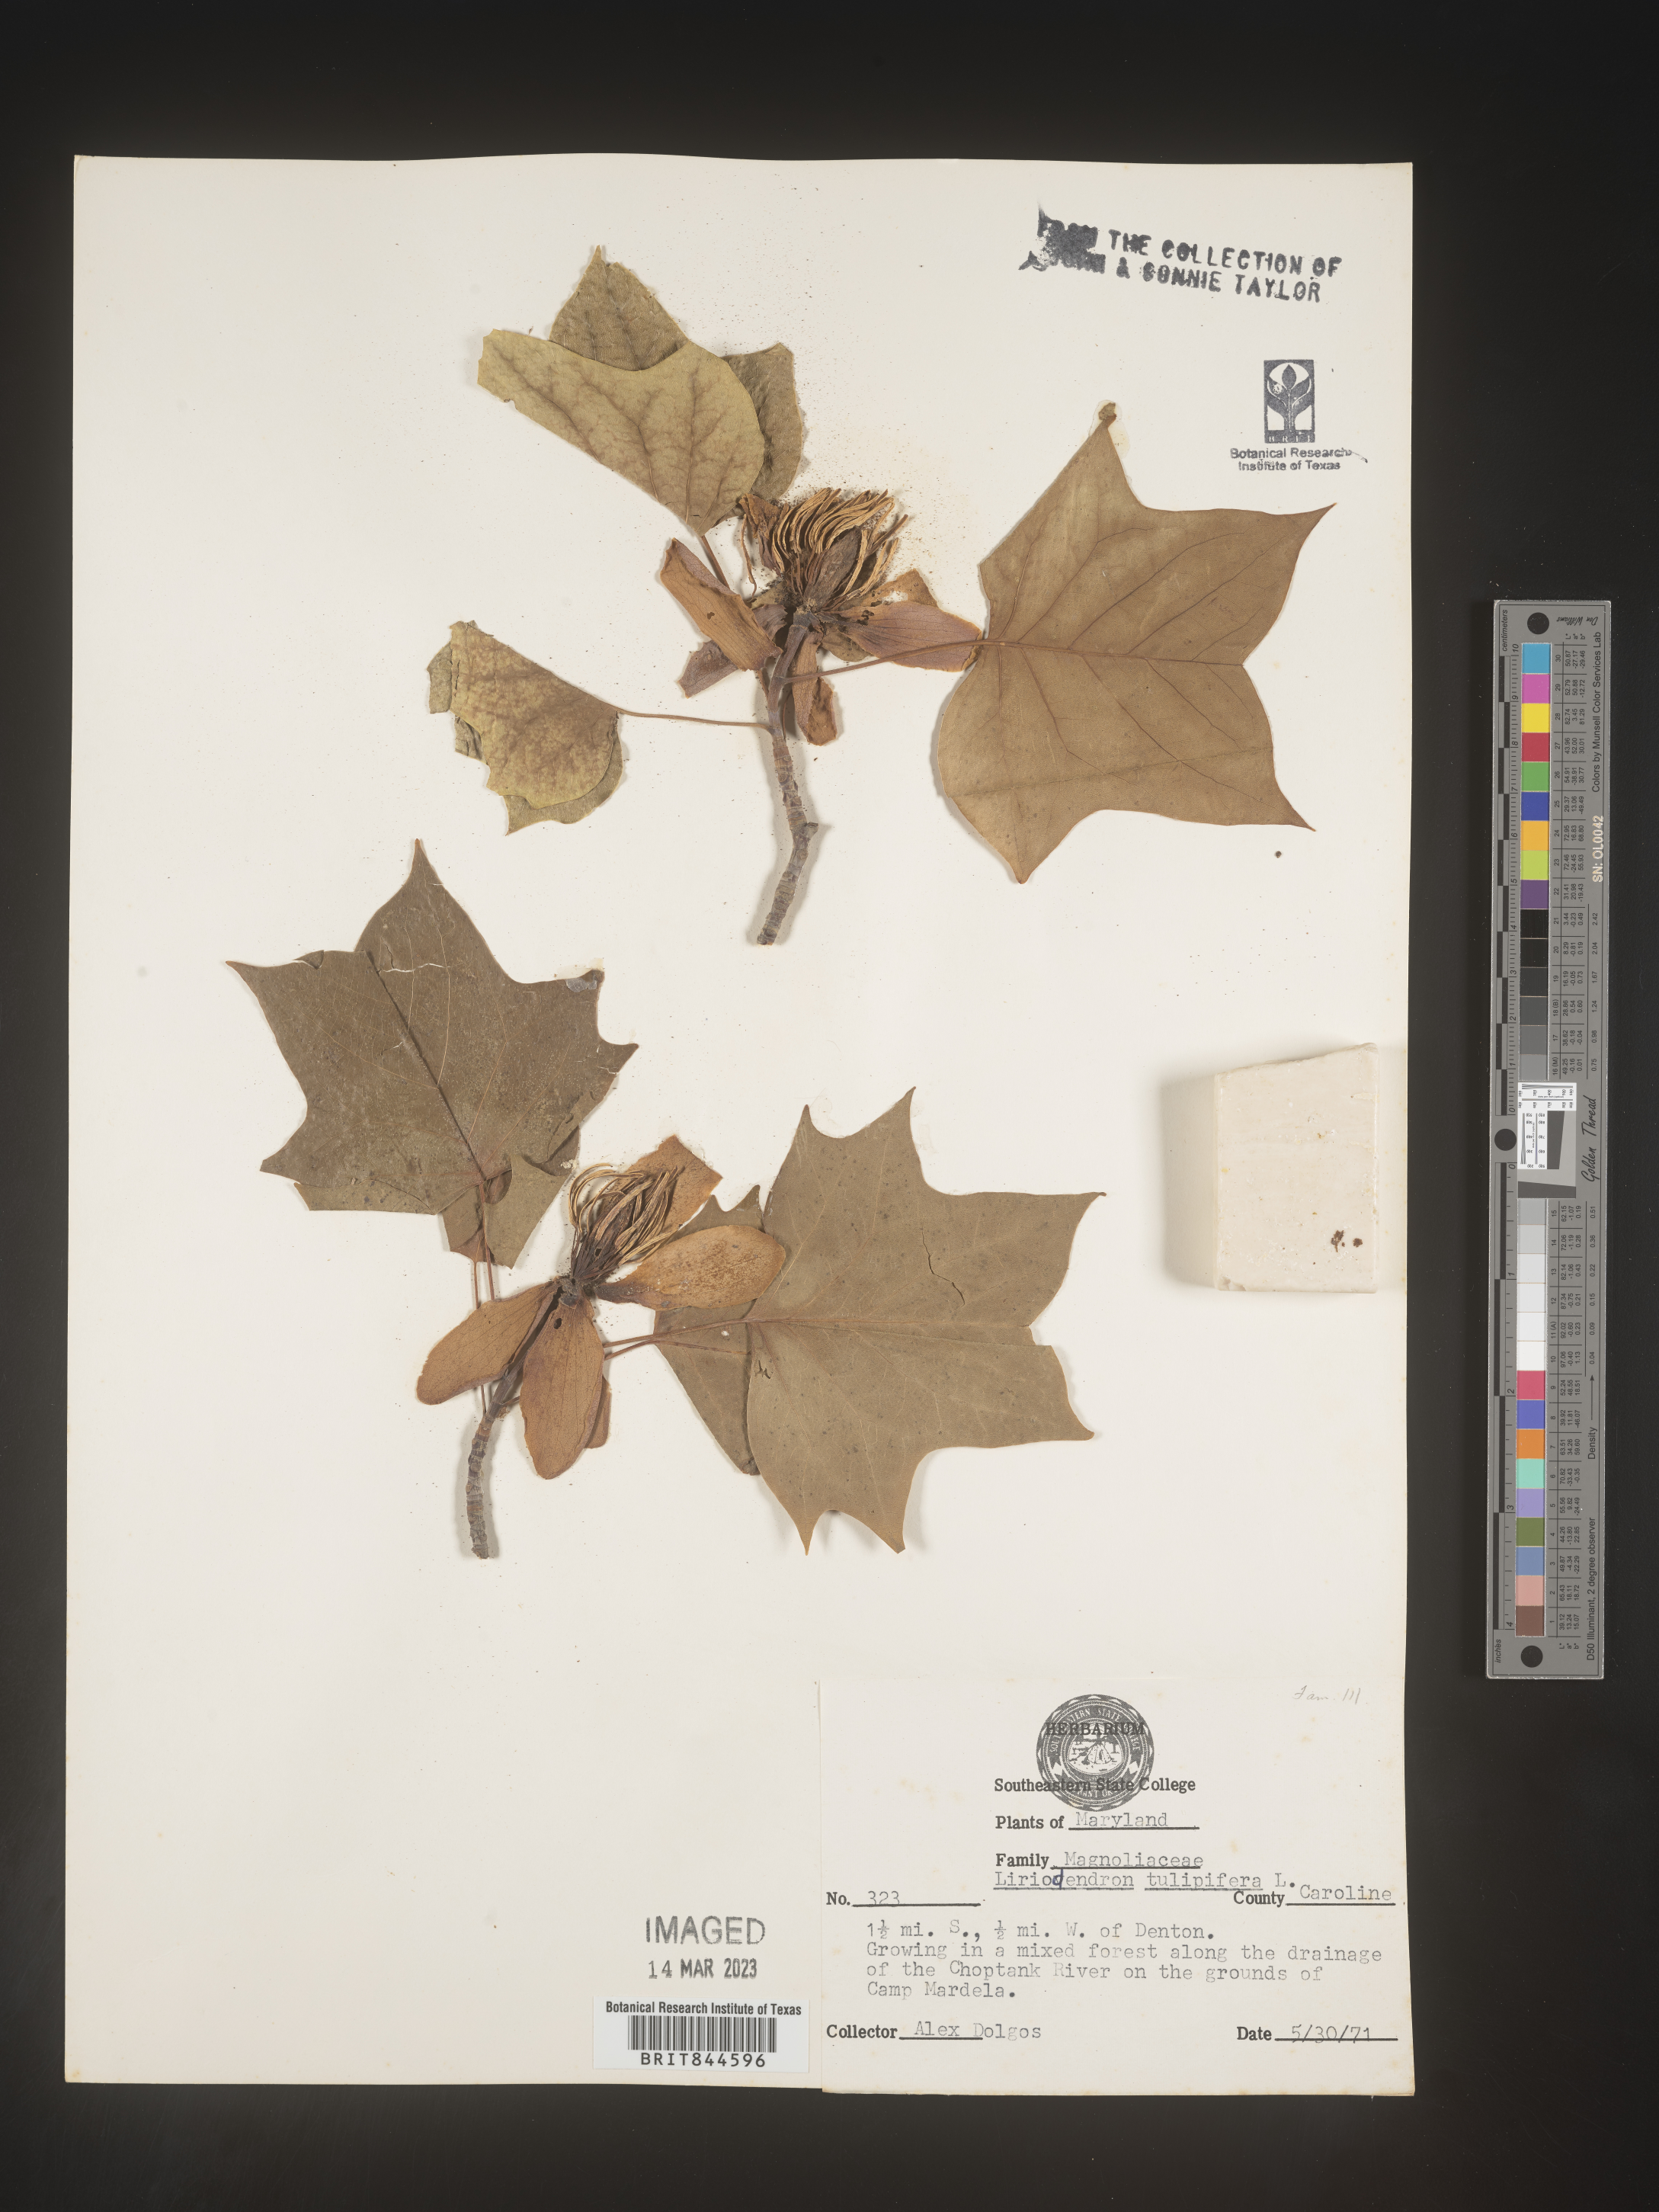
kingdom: Plantae
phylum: Tracheophyta
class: Magnoliopsida
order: Magnoliales
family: Magnoliaceae
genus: Liriodendron
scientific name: Liriodendron tulipifera
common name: Tulip tree
